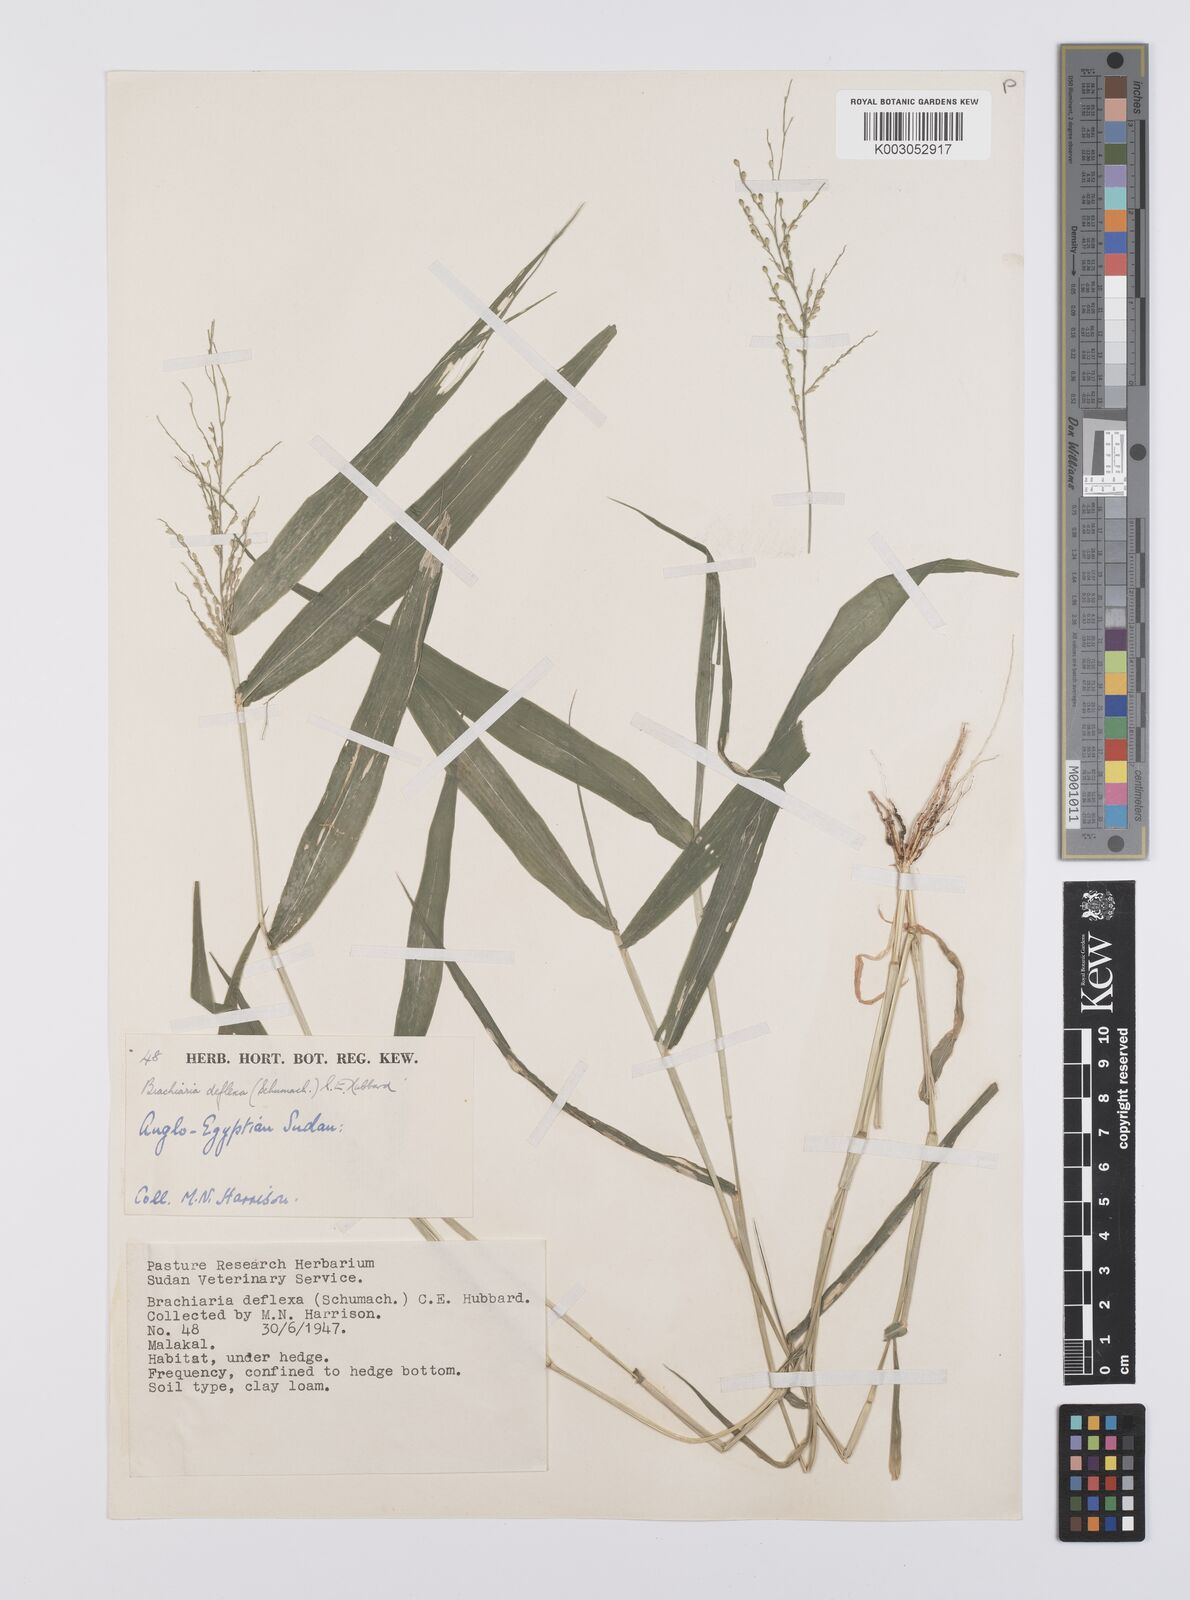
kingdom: Plantae
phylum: Tracheophyta
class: Liliopsida
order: Poales
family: Poaceae
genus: Urochloa
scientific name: Urochloa ramosa
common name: Browntop millet
